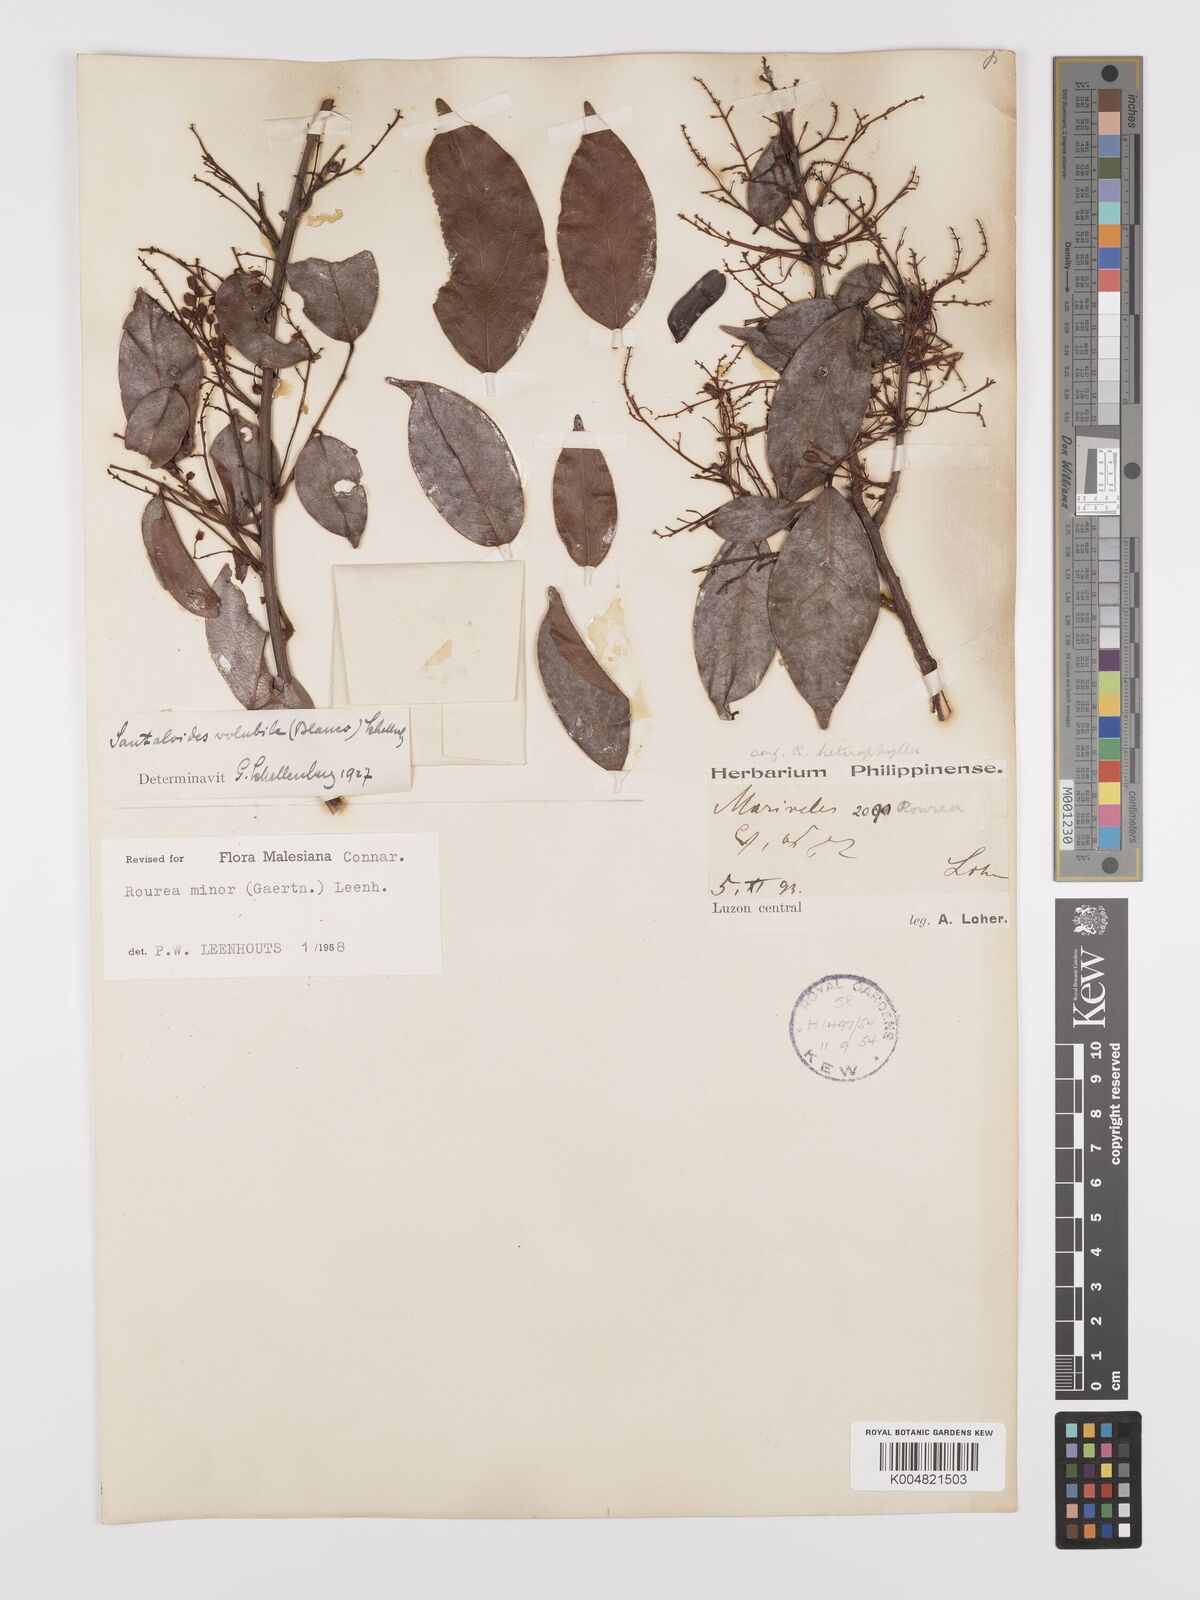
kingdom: Plantae
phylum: Tracheophyta
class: Magnoliopsida
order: Oxalidales
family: Connaraceae
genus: Rourea
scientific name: Rourea minor
